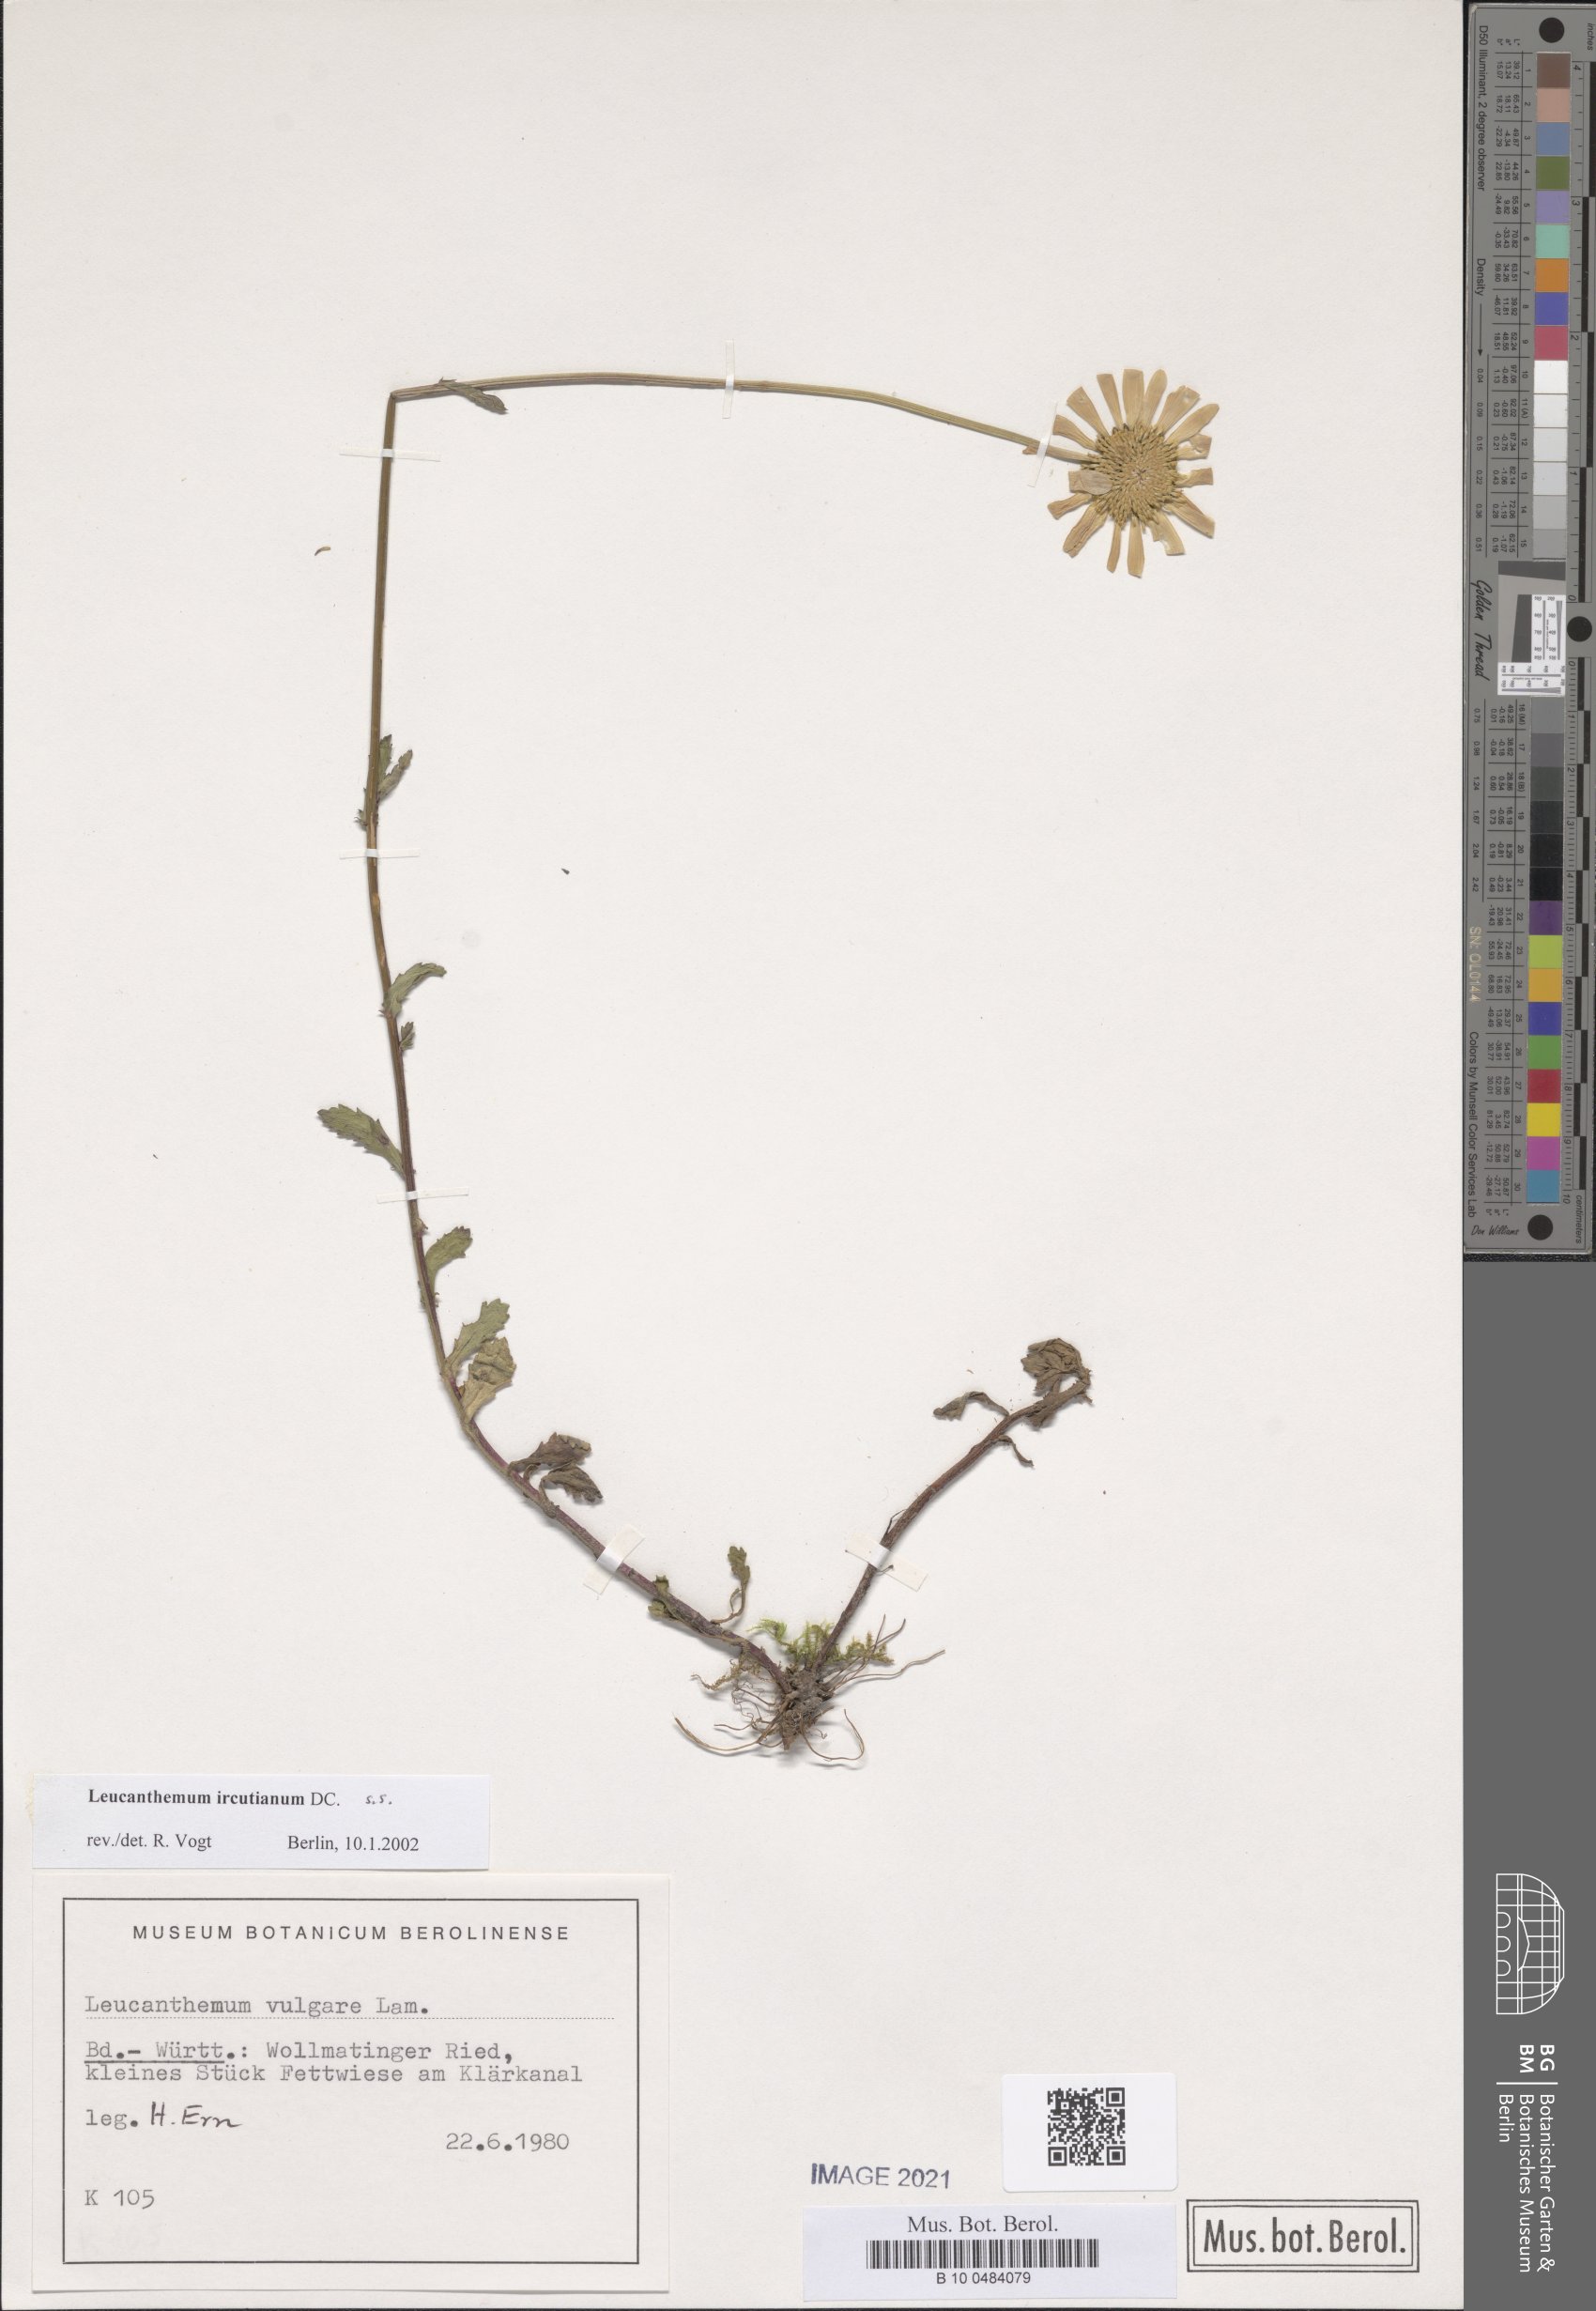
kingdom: Plantae
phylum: Tracheophyta
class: Magnoliopsida
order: Asterales
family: Asteraceae
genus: Leucanthemum
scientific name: Leucanthemum ircutianum
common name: Daisy
